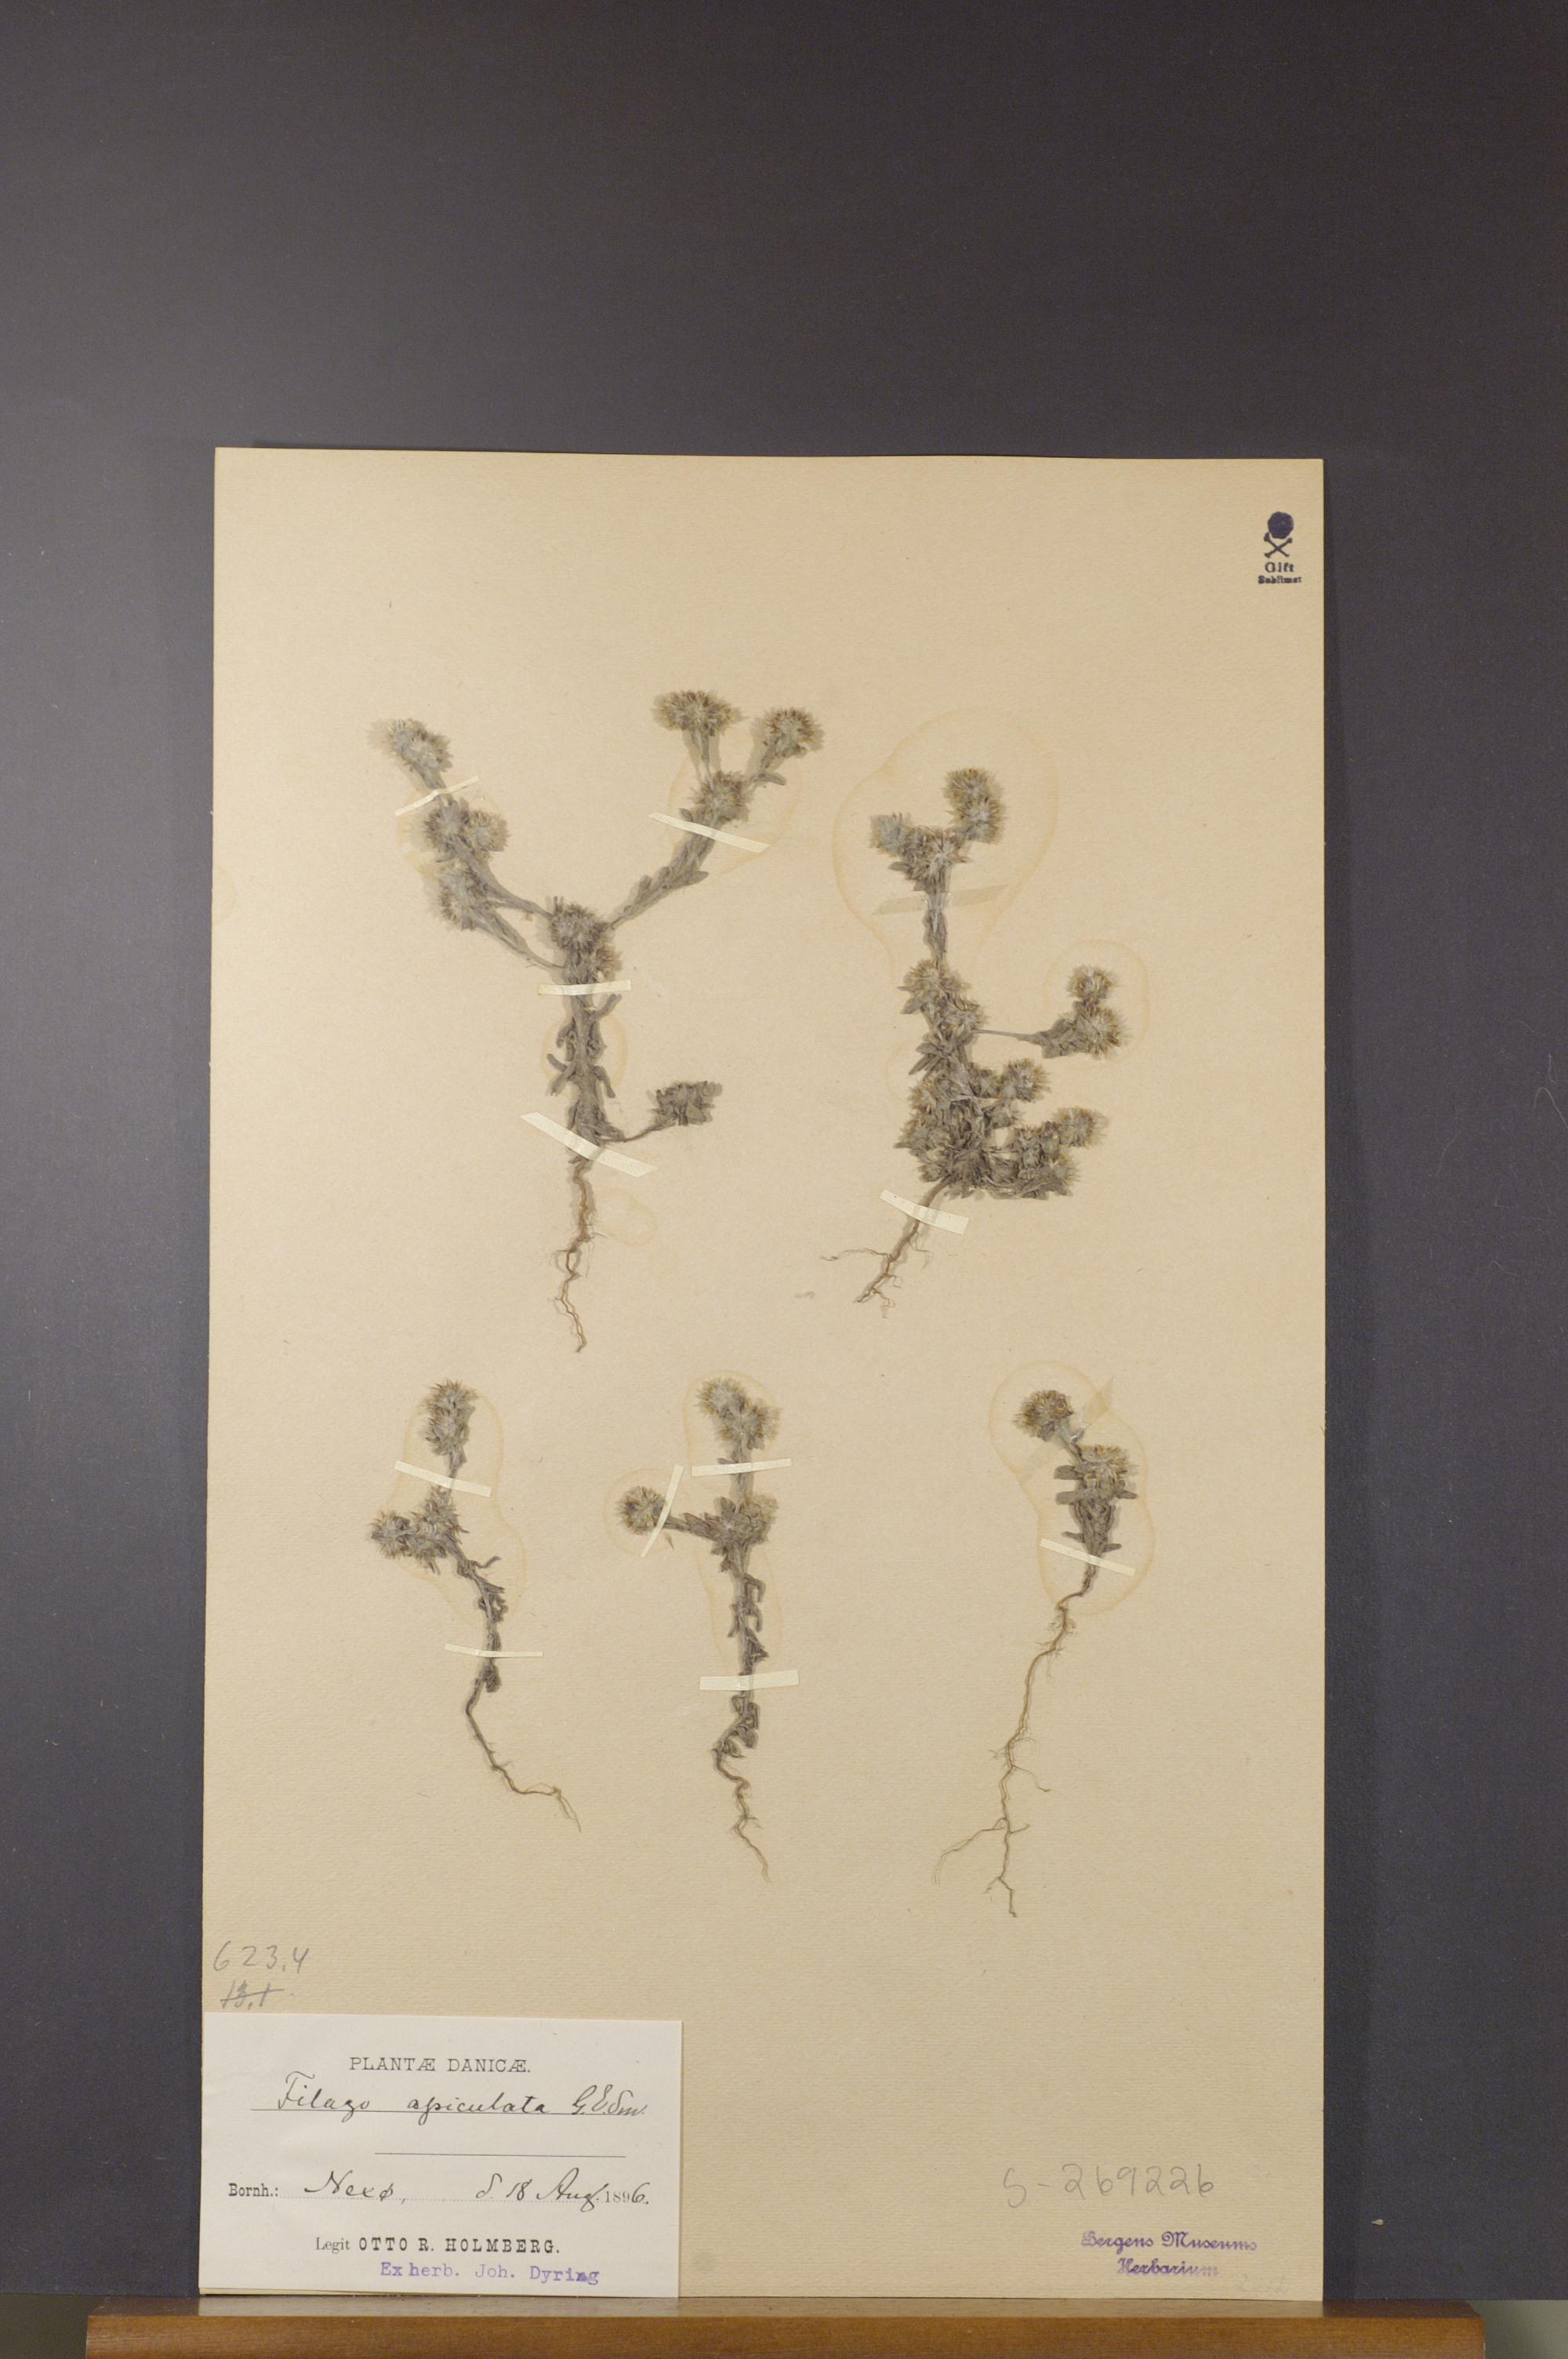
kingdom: Plantae
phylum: Tracheophyta
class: Magnoliopsida
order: Asterales
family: Asteraceae
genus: Filago
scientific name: Filago lutescens
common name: Red-tipped cudweed
